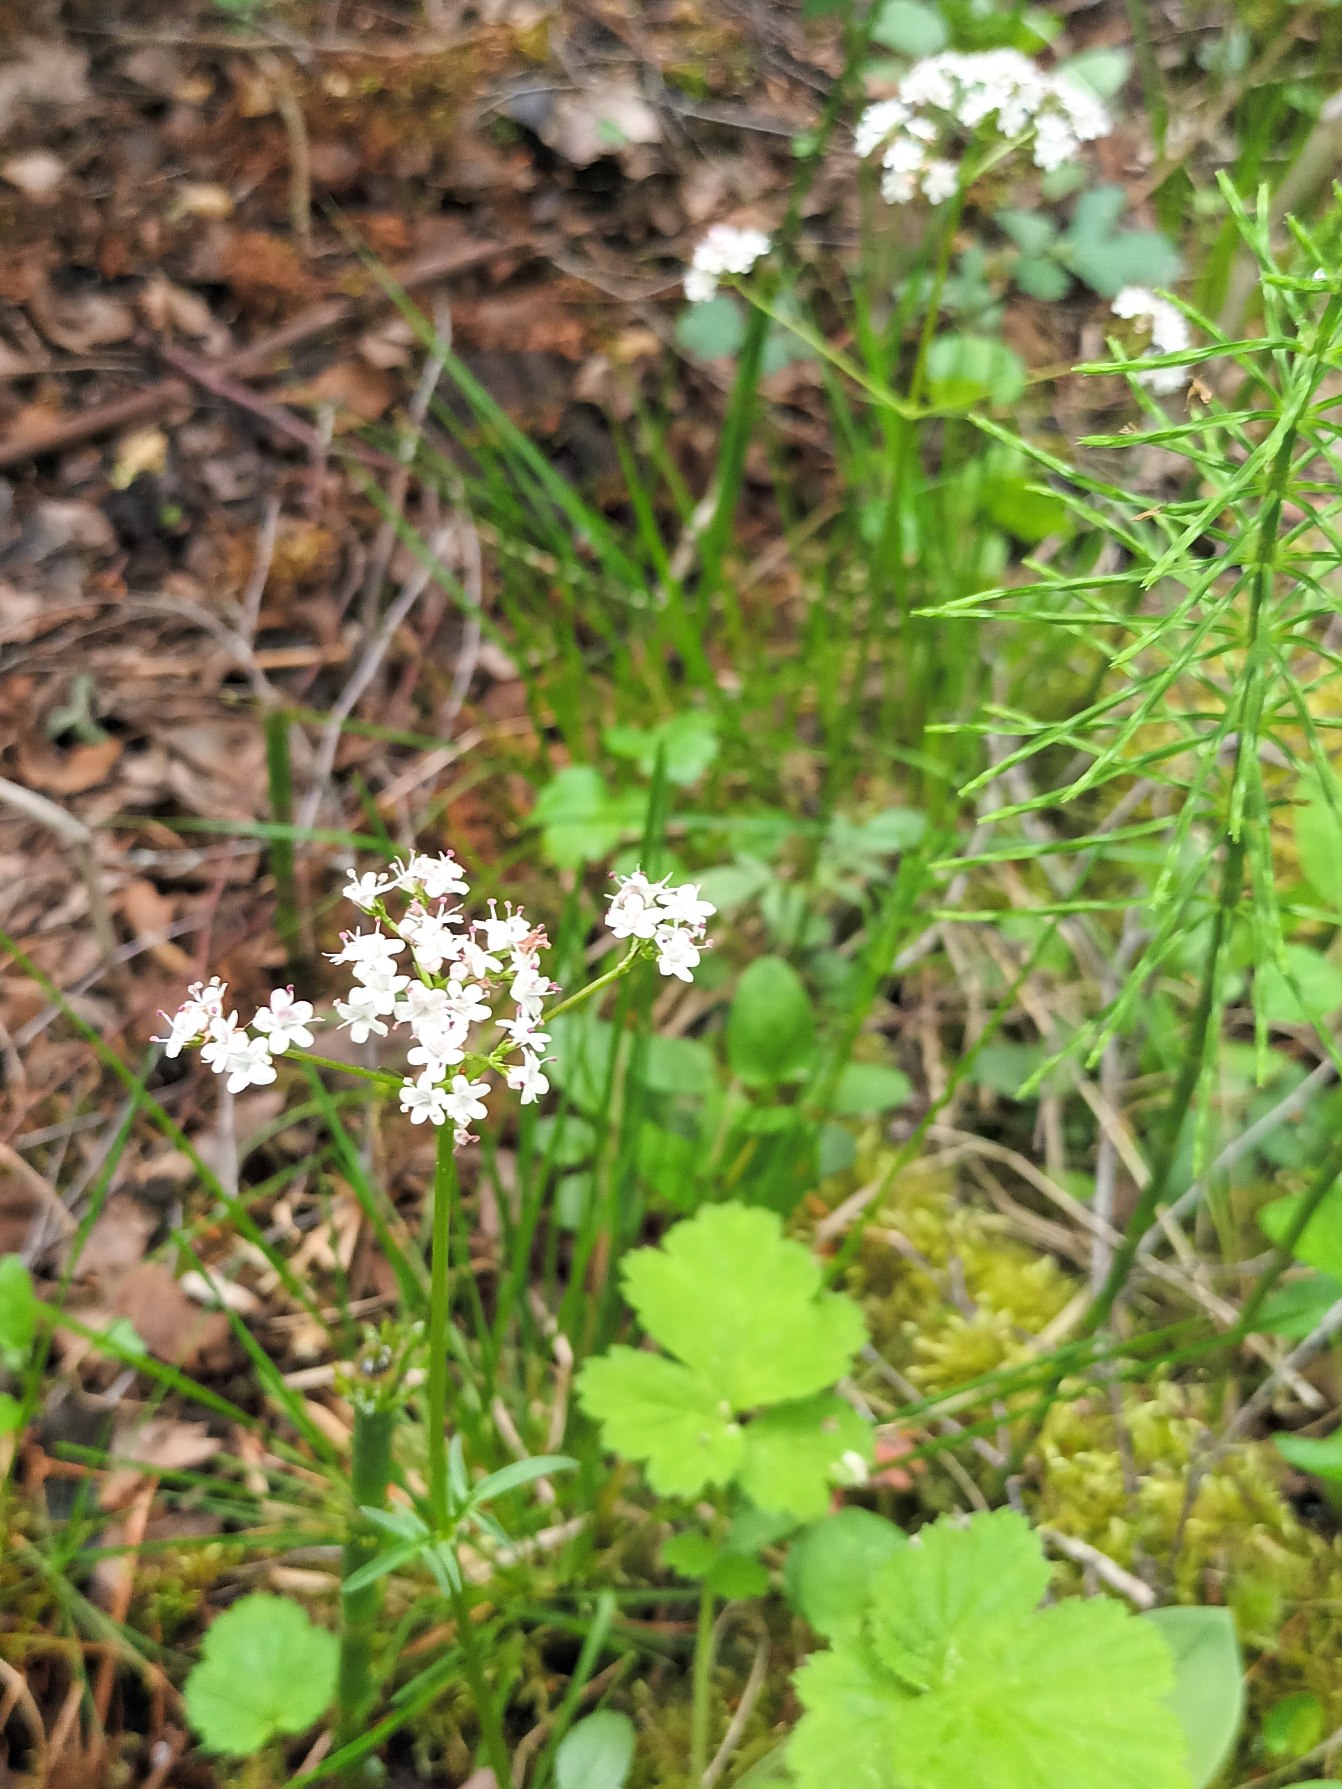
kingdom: Plantae
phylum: Tracheophyta
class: Magnoliopsida
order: Dipsacales
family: Caprifoliaceae
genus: Valeriana
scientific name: Valeriana dioica
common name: Tvebo baldrian
